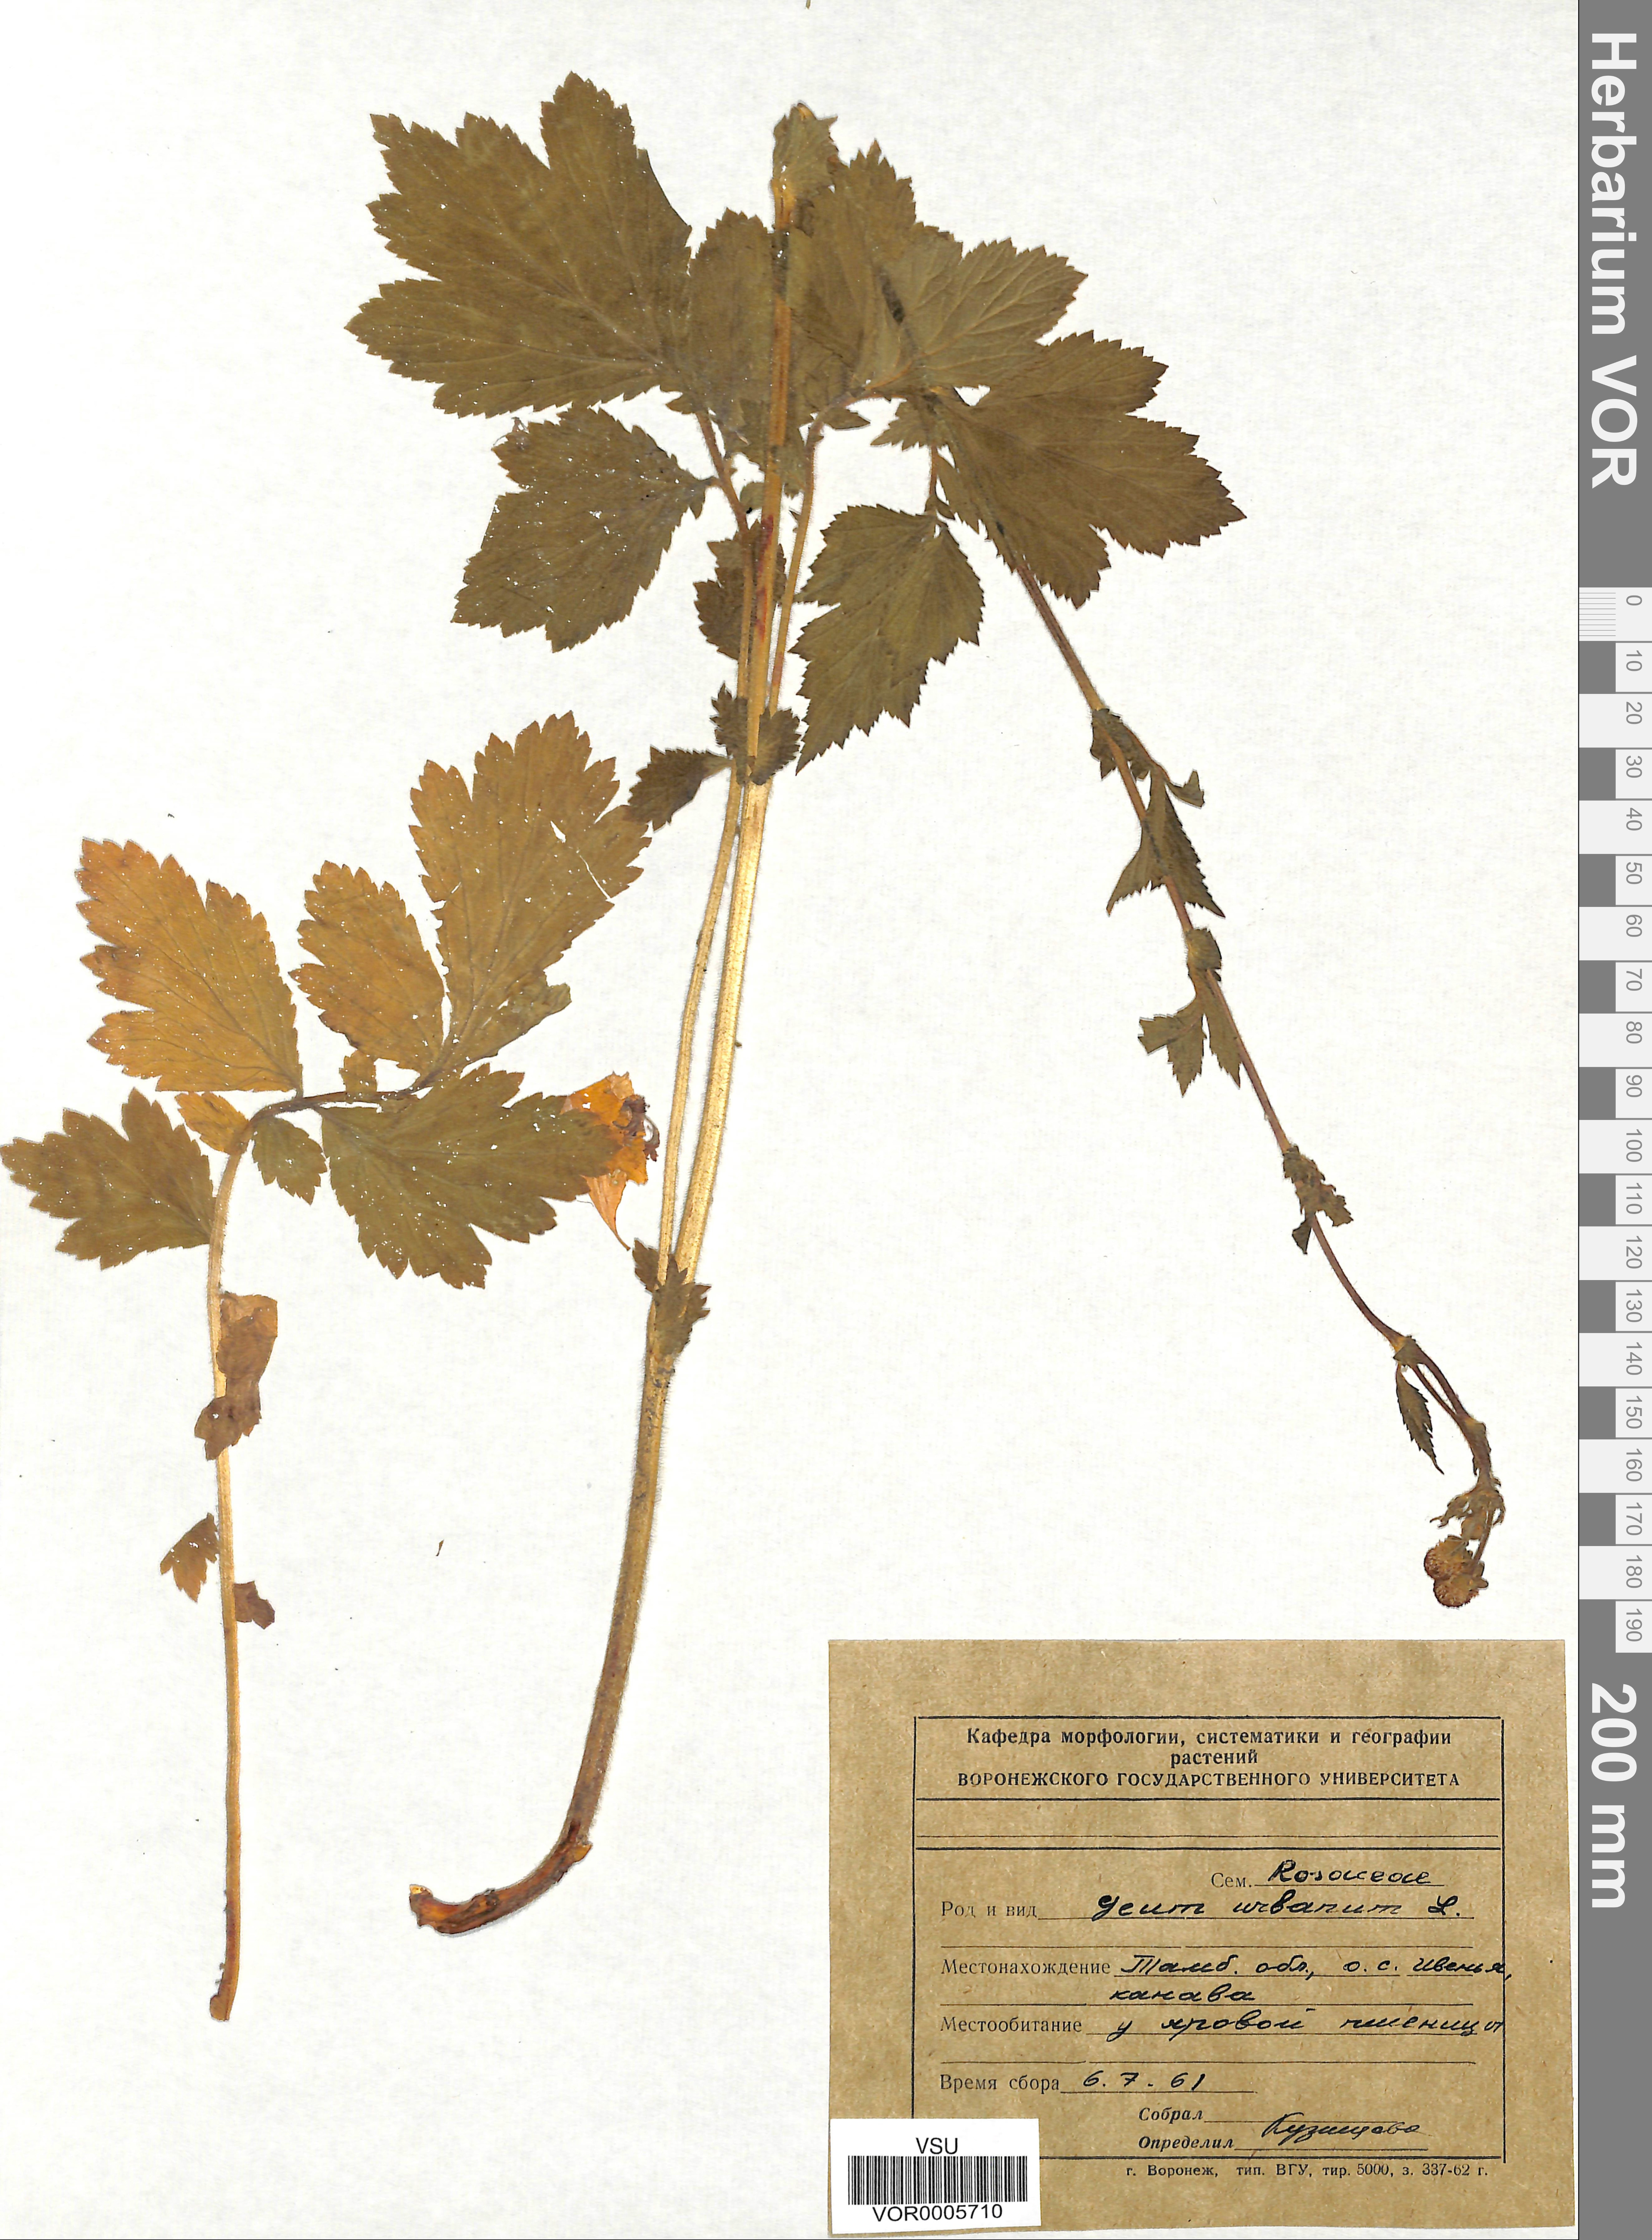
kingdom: Plantae
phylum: Tracheophyta
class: Magnoliopsida
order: Rosales
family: Rosaceae
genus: Geum
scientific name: Geum urbanum
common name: Wood avens
